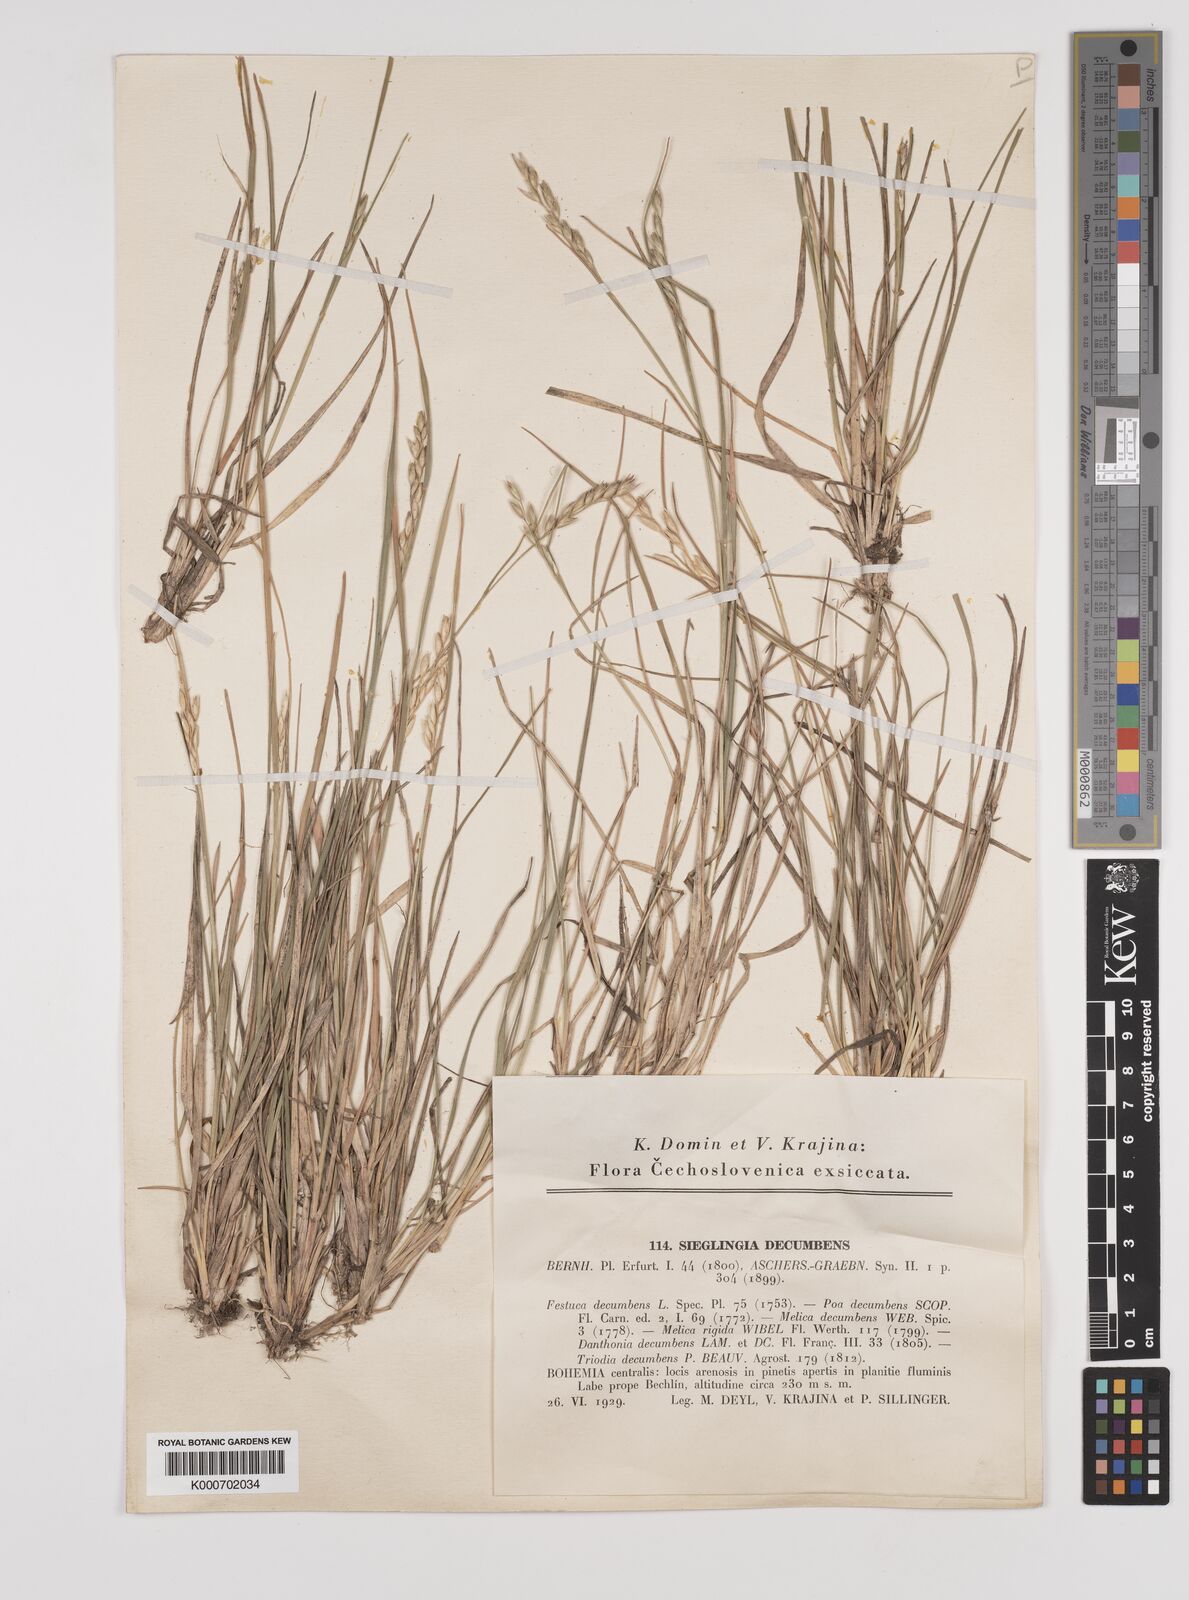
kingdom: Plantae
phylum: Tracheophyta
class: Liliopsida
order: Poales
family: Poaceae
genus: Danthonia
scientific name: Danthonia decumbens
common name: Common heathgrass
